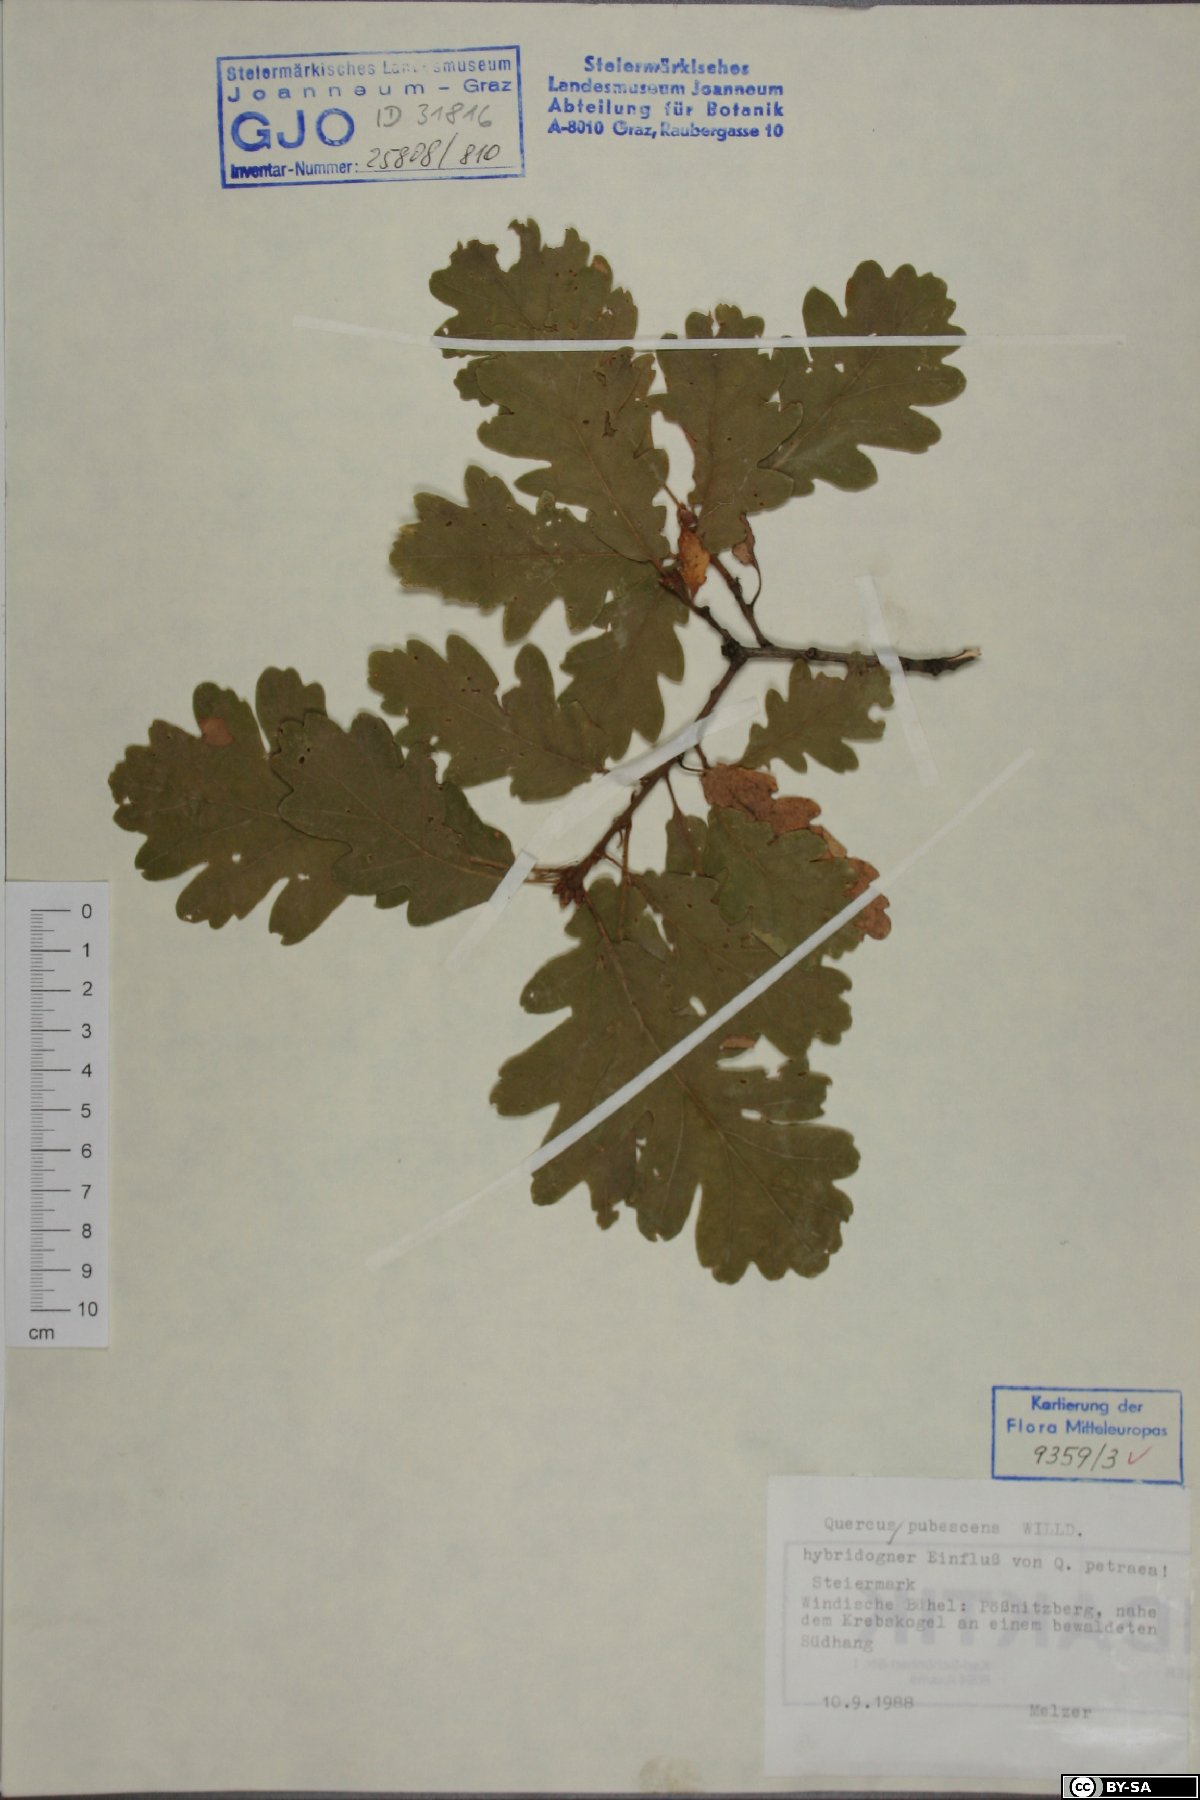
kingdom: Plantae
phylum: Tracheophyta
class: Magnoliopsida
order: Fagales
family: Fagaceae
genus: Quercus
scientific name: Quercus pubescens
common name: Downy oak
